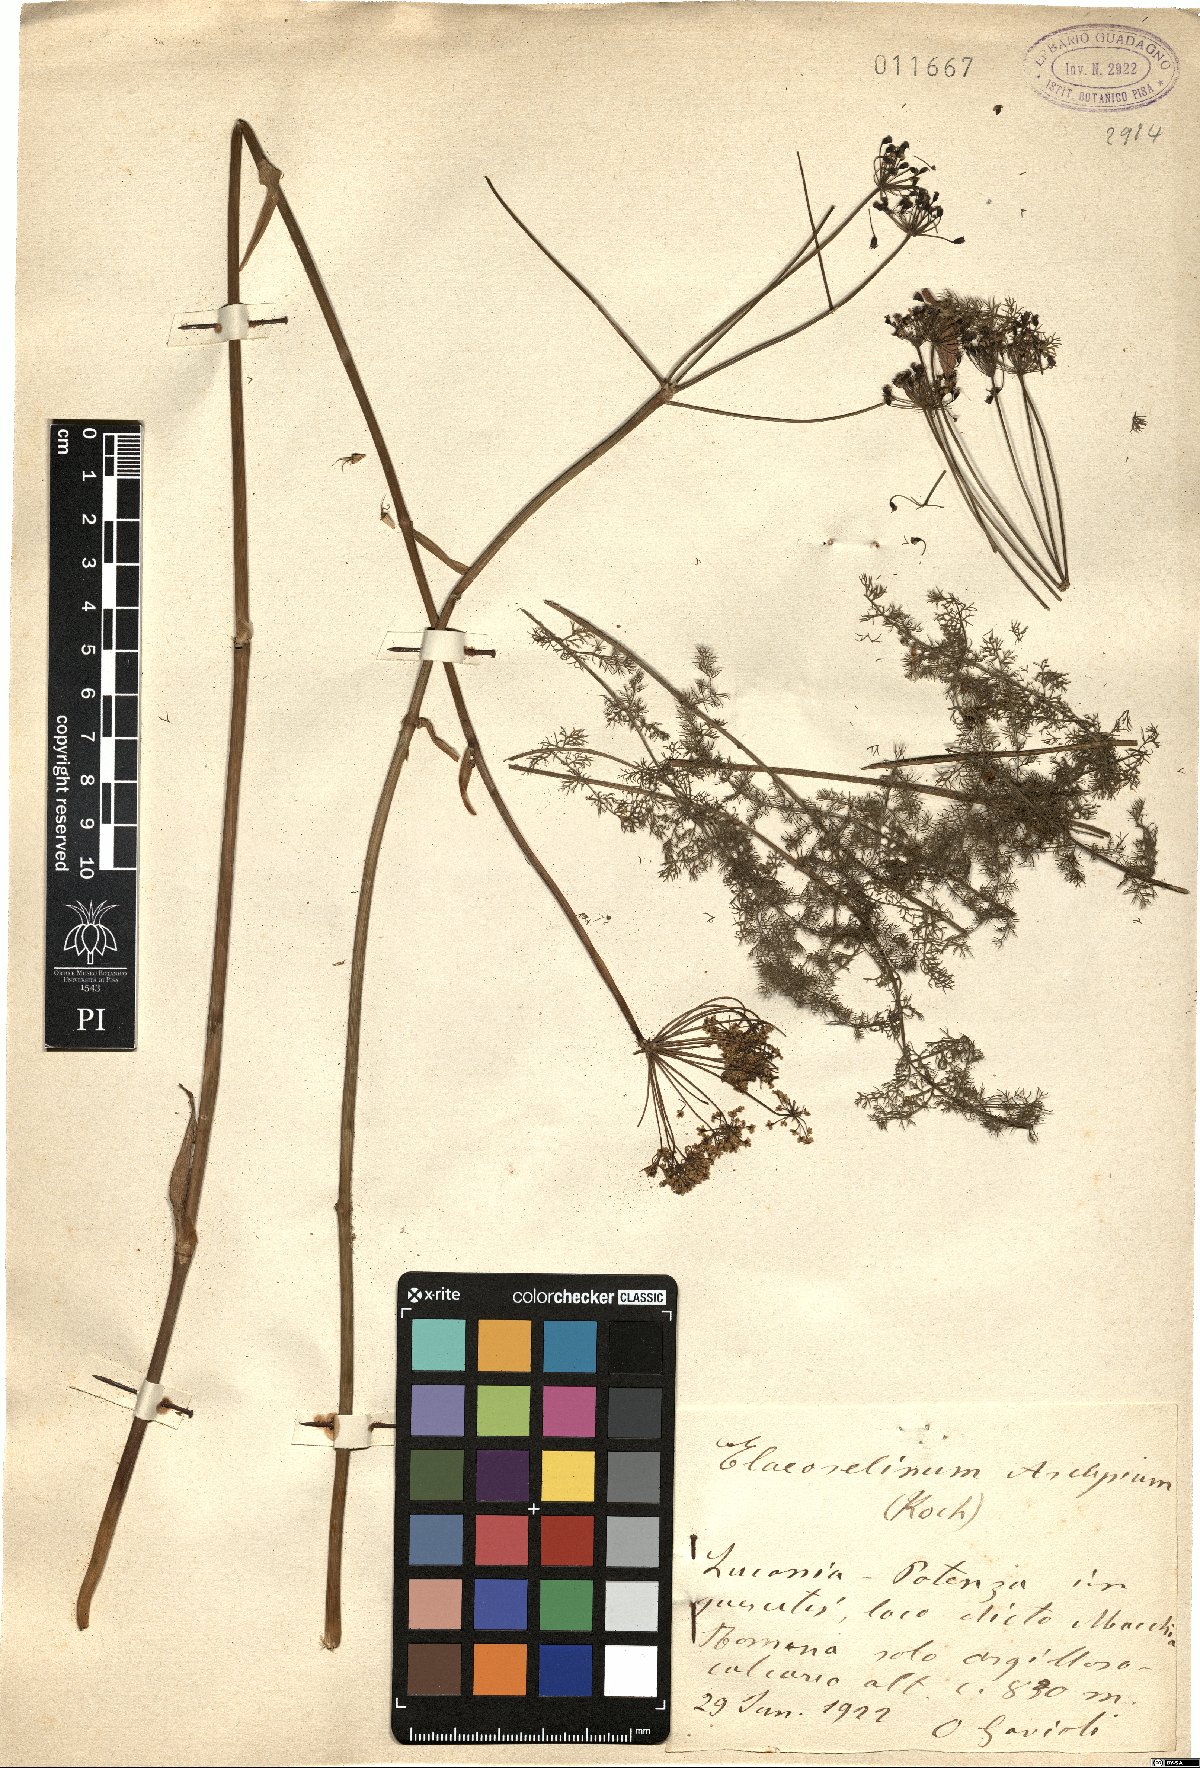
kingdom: Plantae
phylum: Tracheophyta
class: Magnoliopsida
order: Apiales
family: Apiaceae
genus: Thapsia
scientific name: Thapsia asclepium
